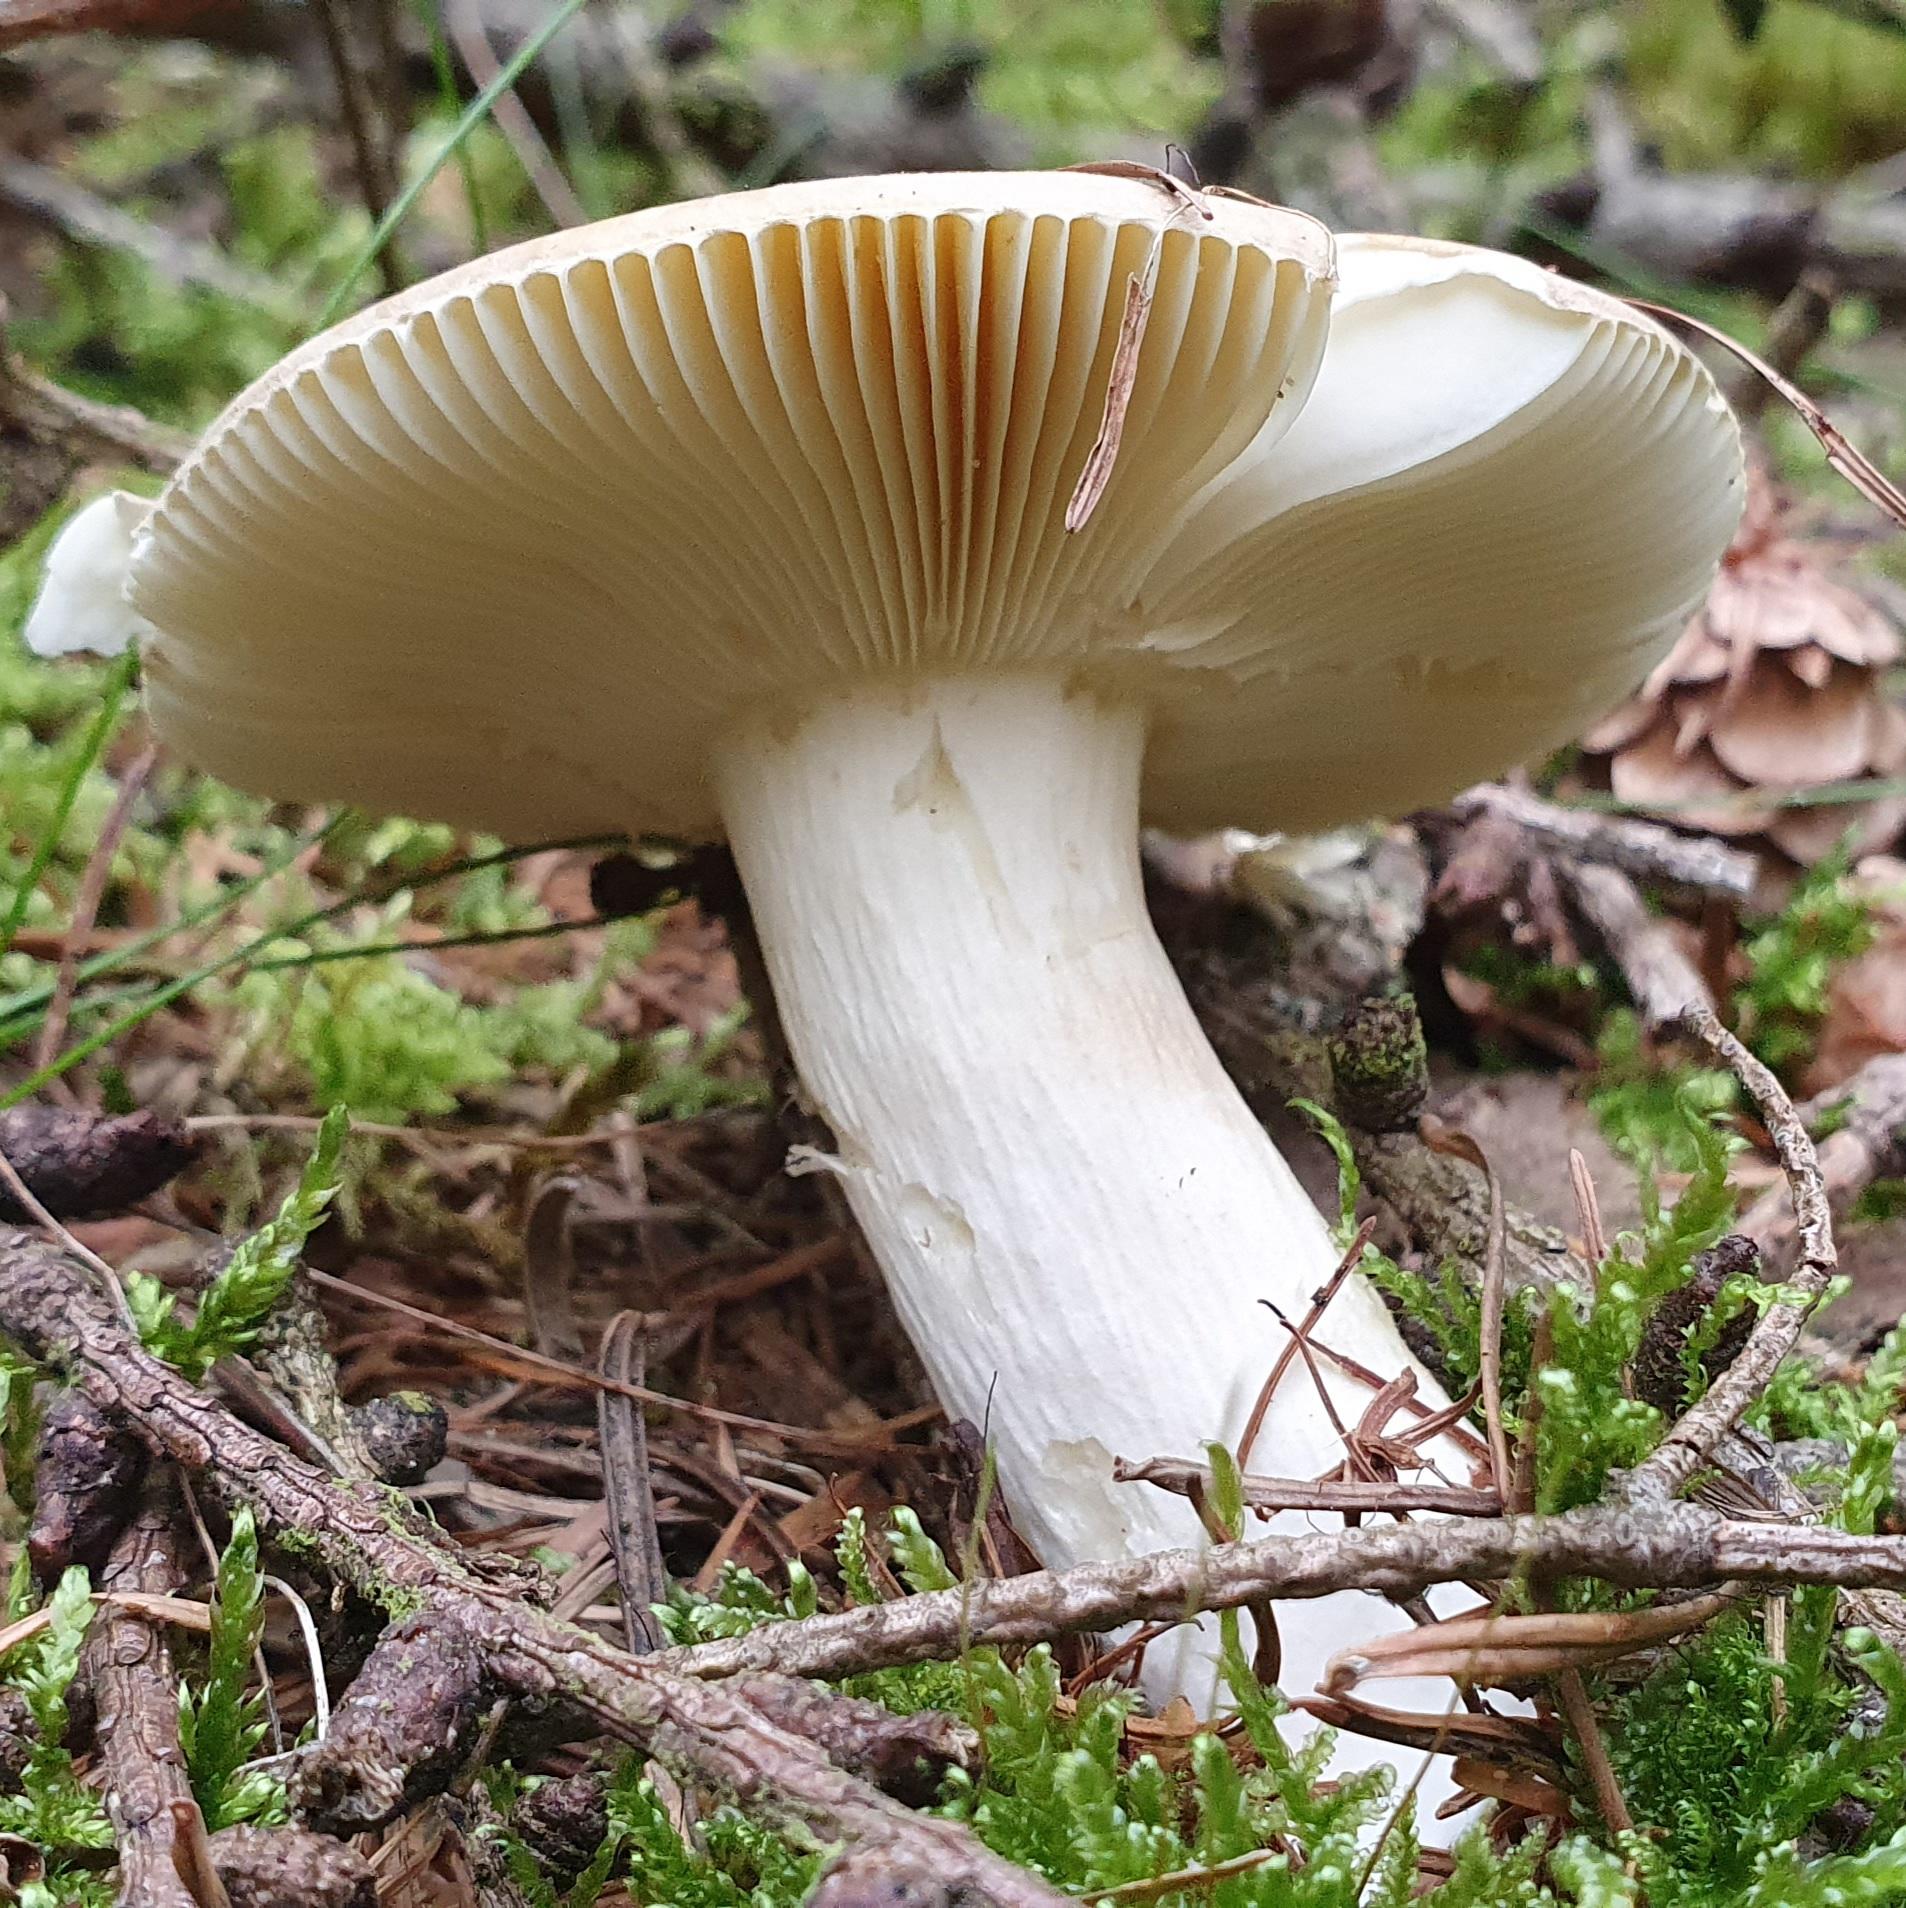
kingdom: Fungi
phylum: Basidiomycota
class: Agaricomycetes
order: Russulales
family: Russulaceae
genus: Russula
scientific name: Russula
